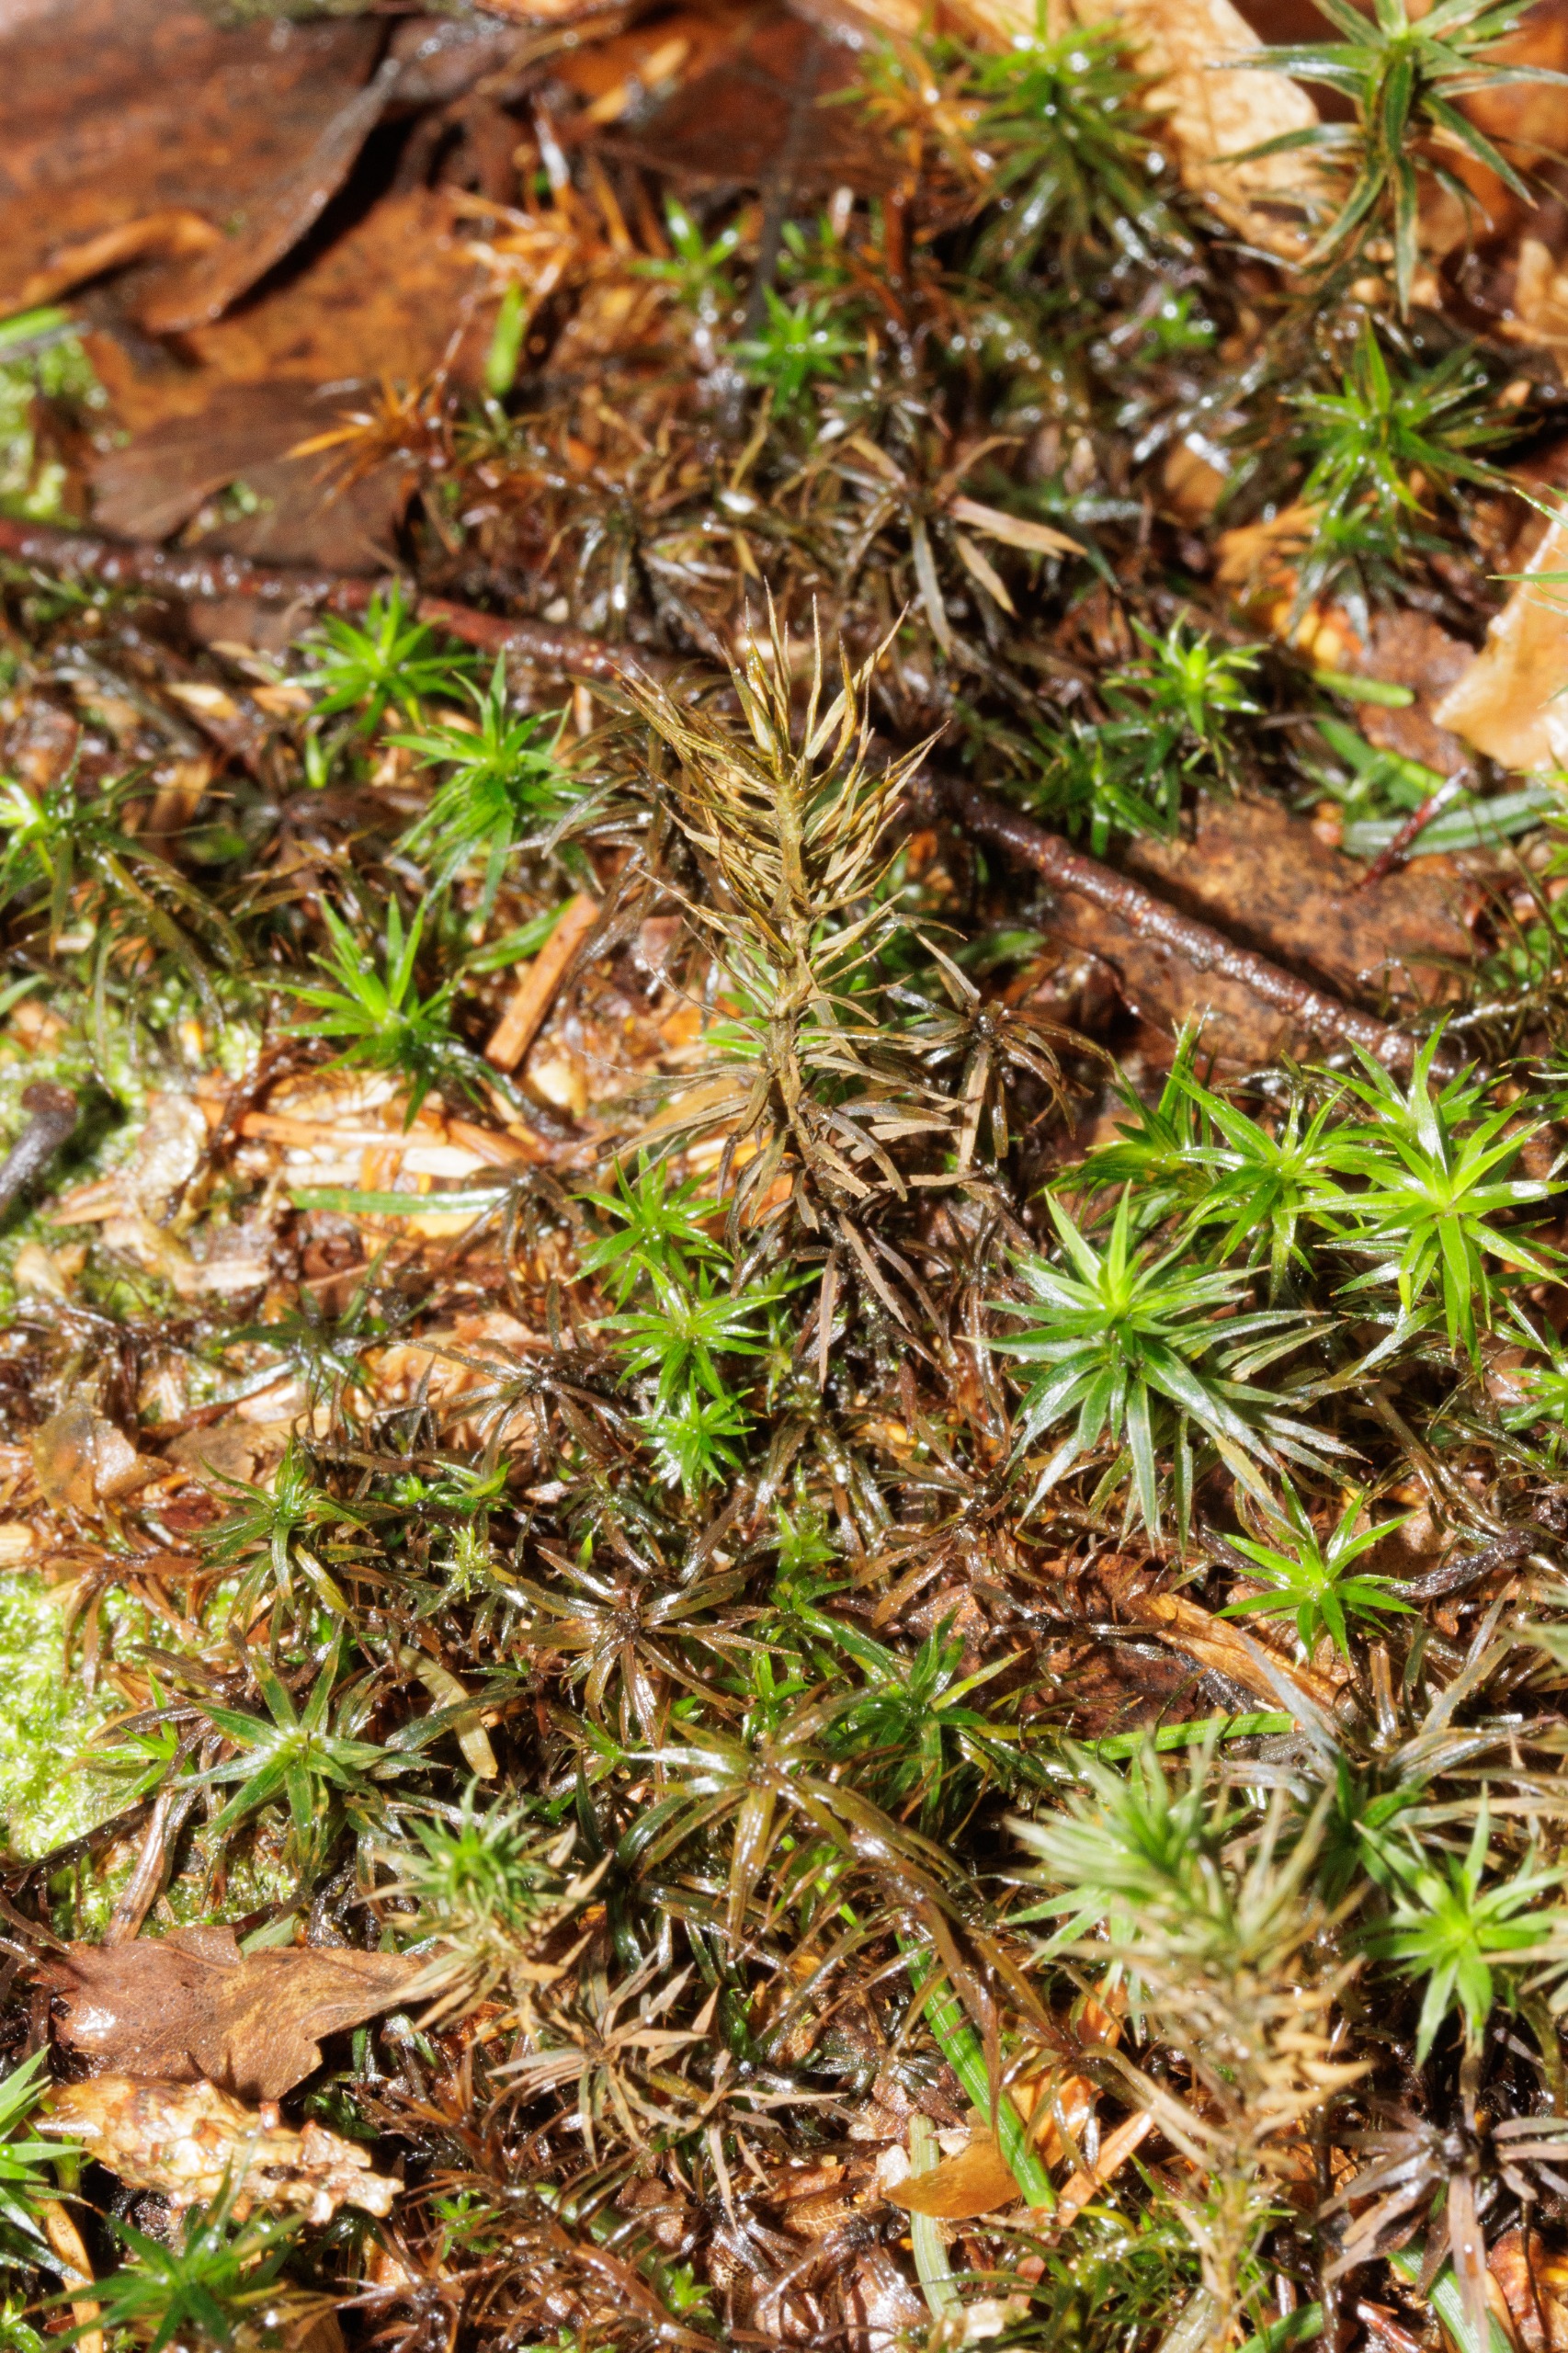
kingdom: Plantae
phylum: Bryophyta
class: Polytrichopsida
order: Polytrichales
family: Polytrichaceae
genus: Polytrichum
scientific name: Polytrichum formosum
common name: Skov-jomfruhår
